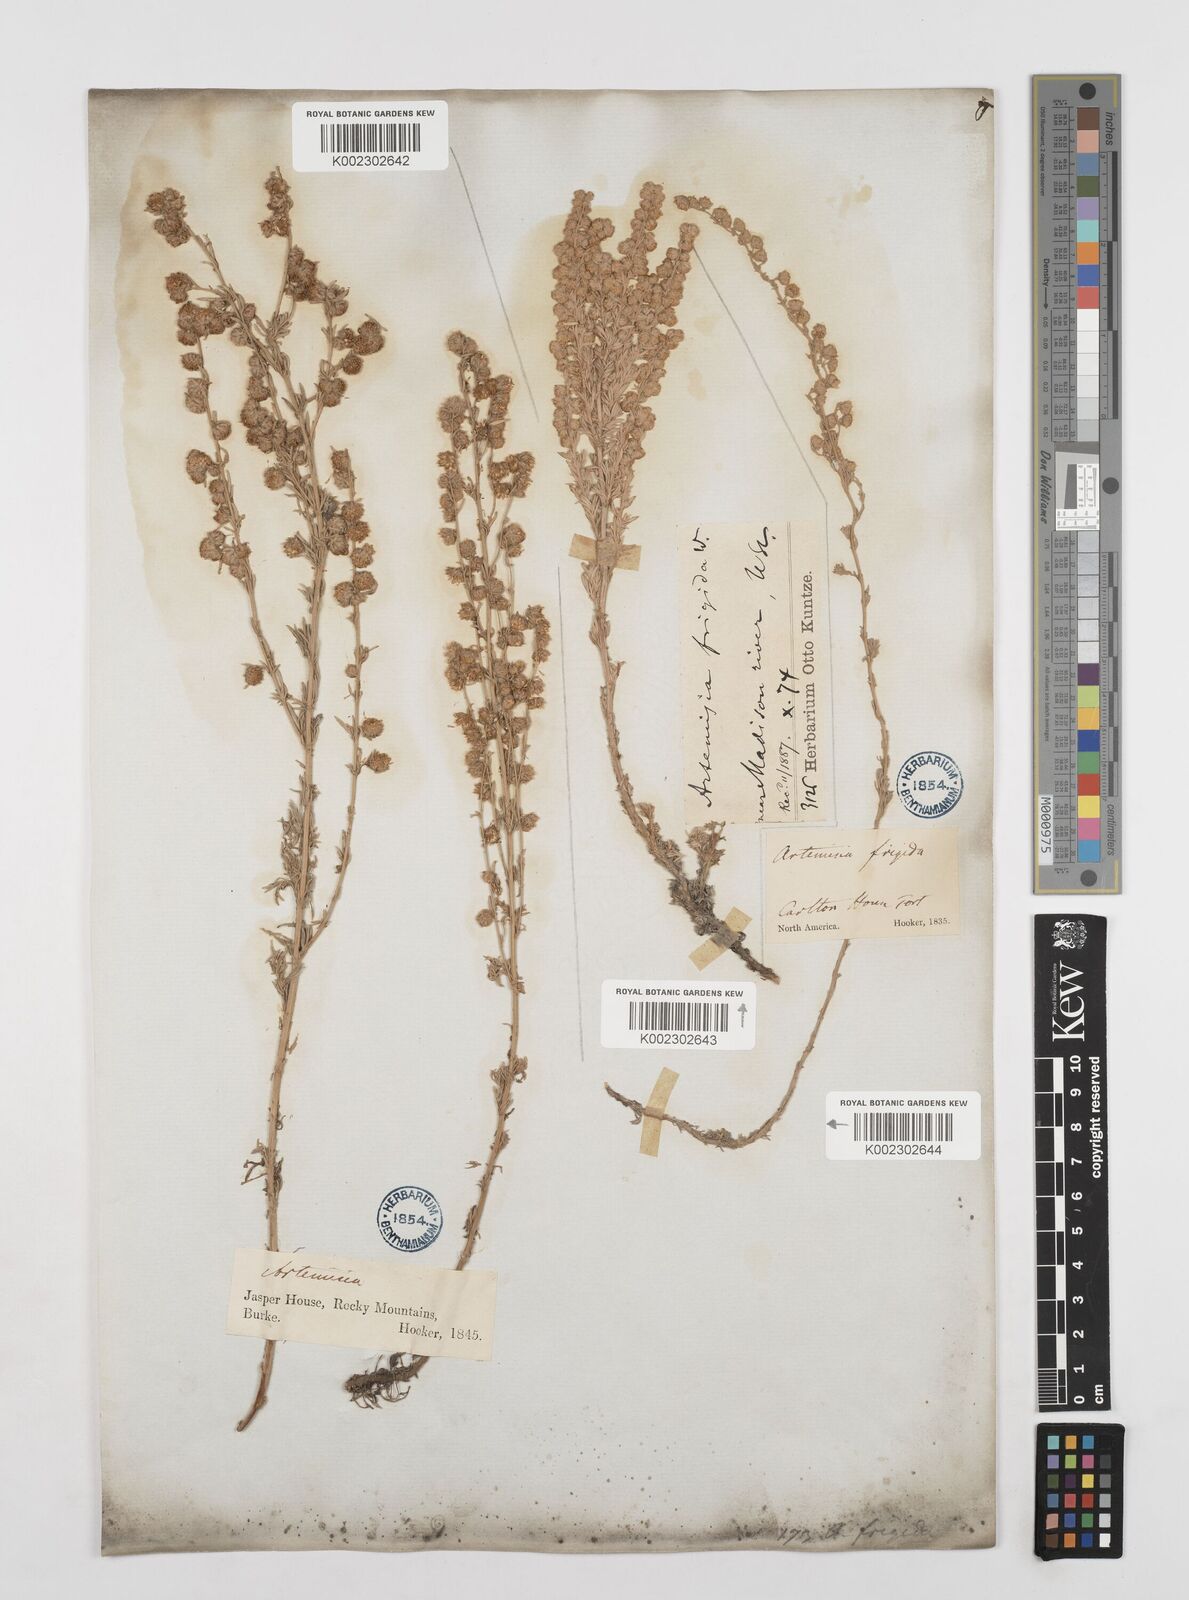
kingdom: Plantae
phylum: Tracheophyta
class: Magnoliopsida
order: Asterales
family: Asteraceae
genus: Artemisia
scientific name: Artemisia frigida
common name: Prairie sagewort
